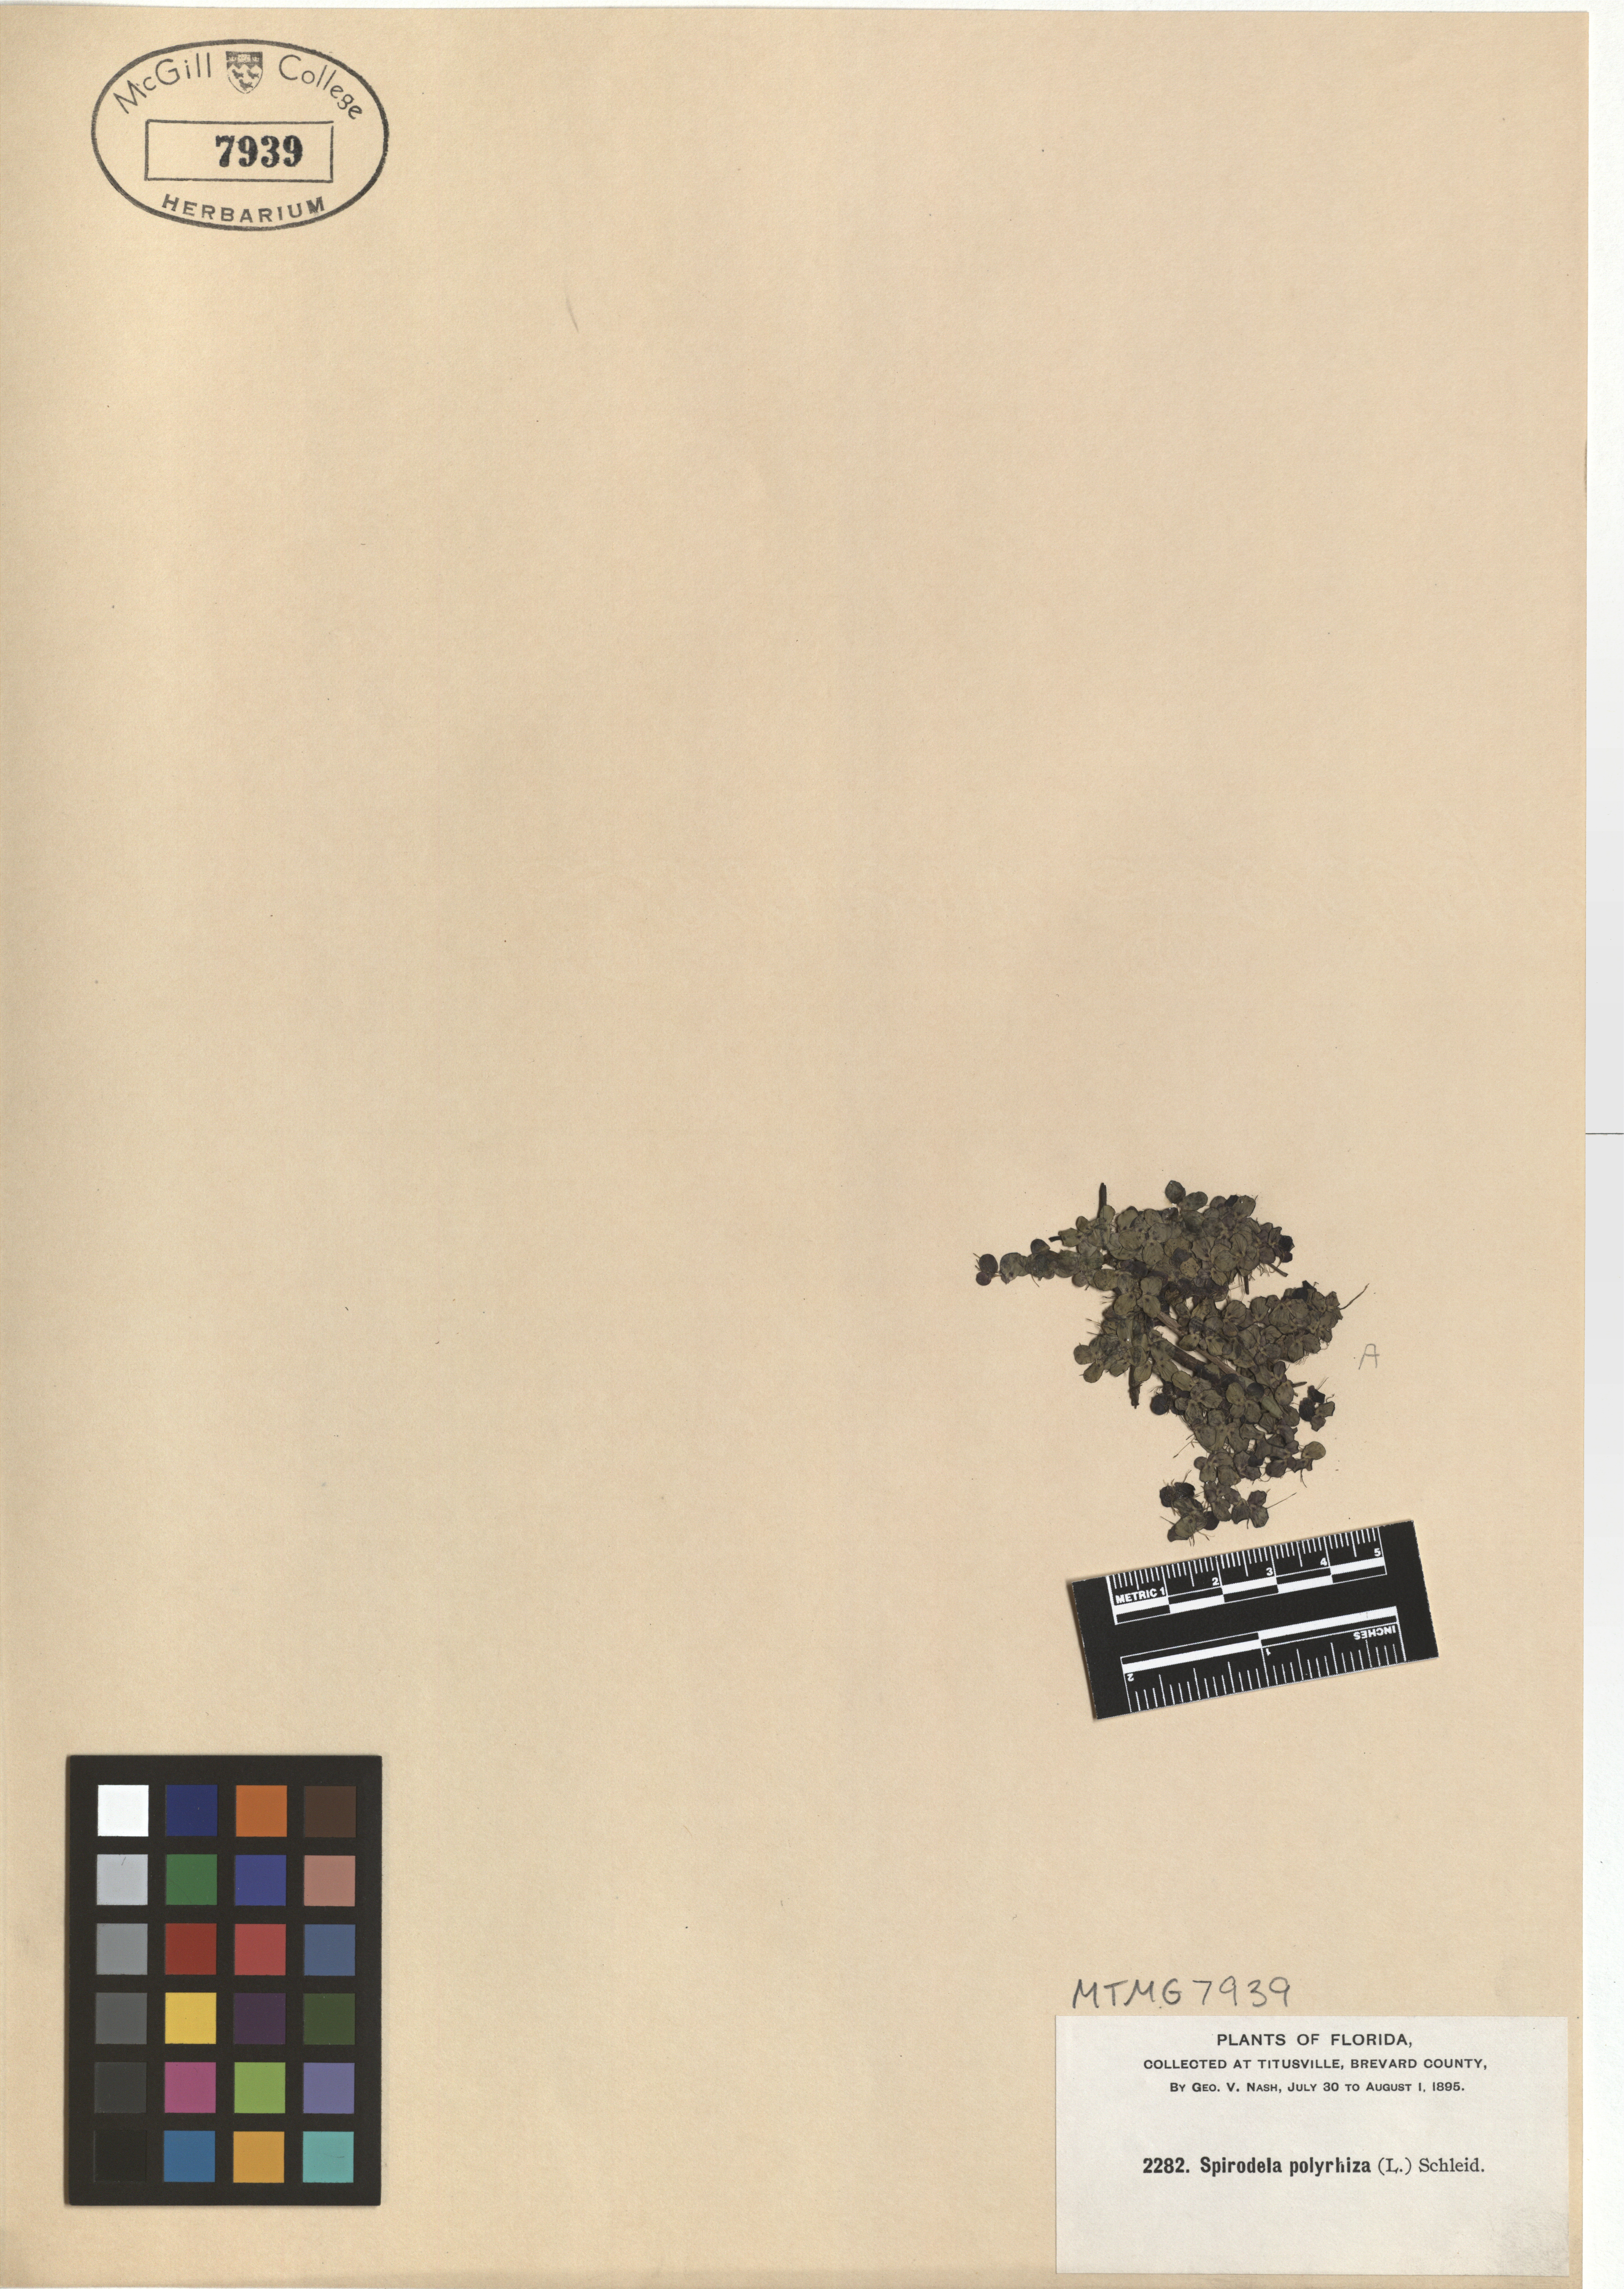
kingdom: Plantae
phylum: Tracheophyta
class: Liliopsida
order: Alismatales
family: Araceae
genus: Spirodela
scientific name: Spirodela polyrhiza
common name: Great duckweed
